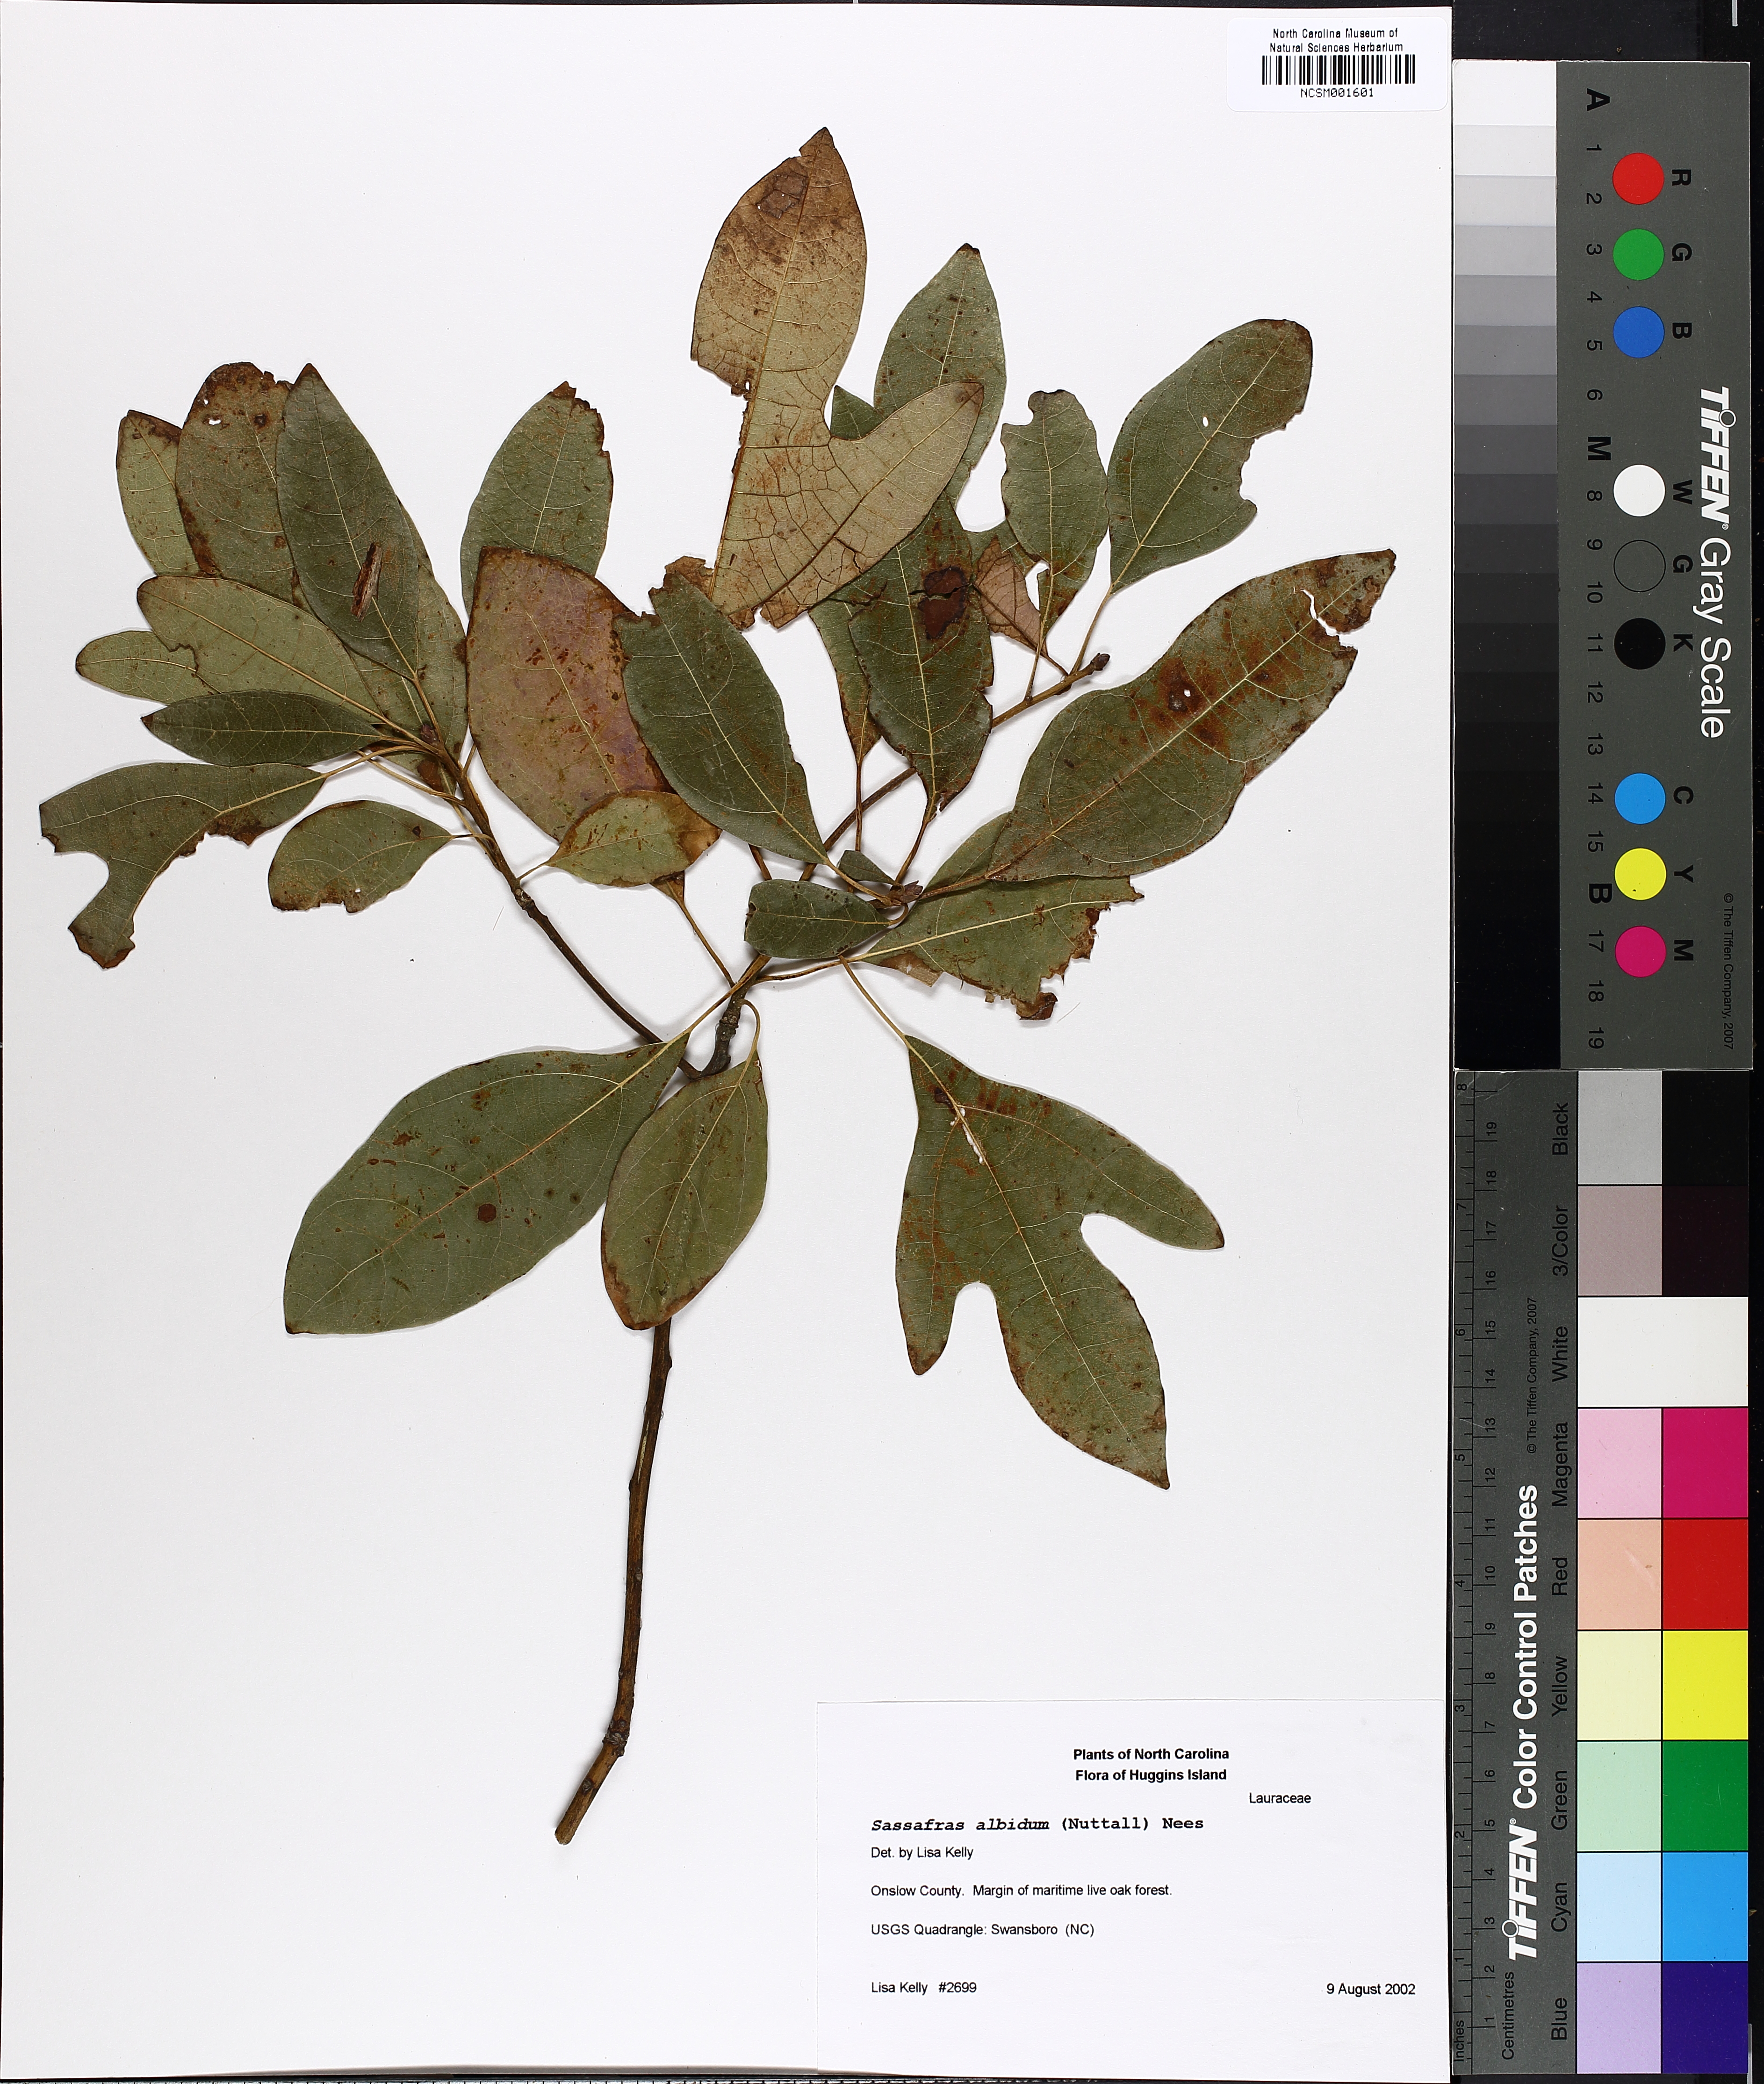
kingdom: Plantae
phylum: Tracheophyta
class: Magnoliopsida
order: Laurales
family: Lauraceae
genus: Sassafras
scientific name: Sassafras albidum
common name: Sassafras
